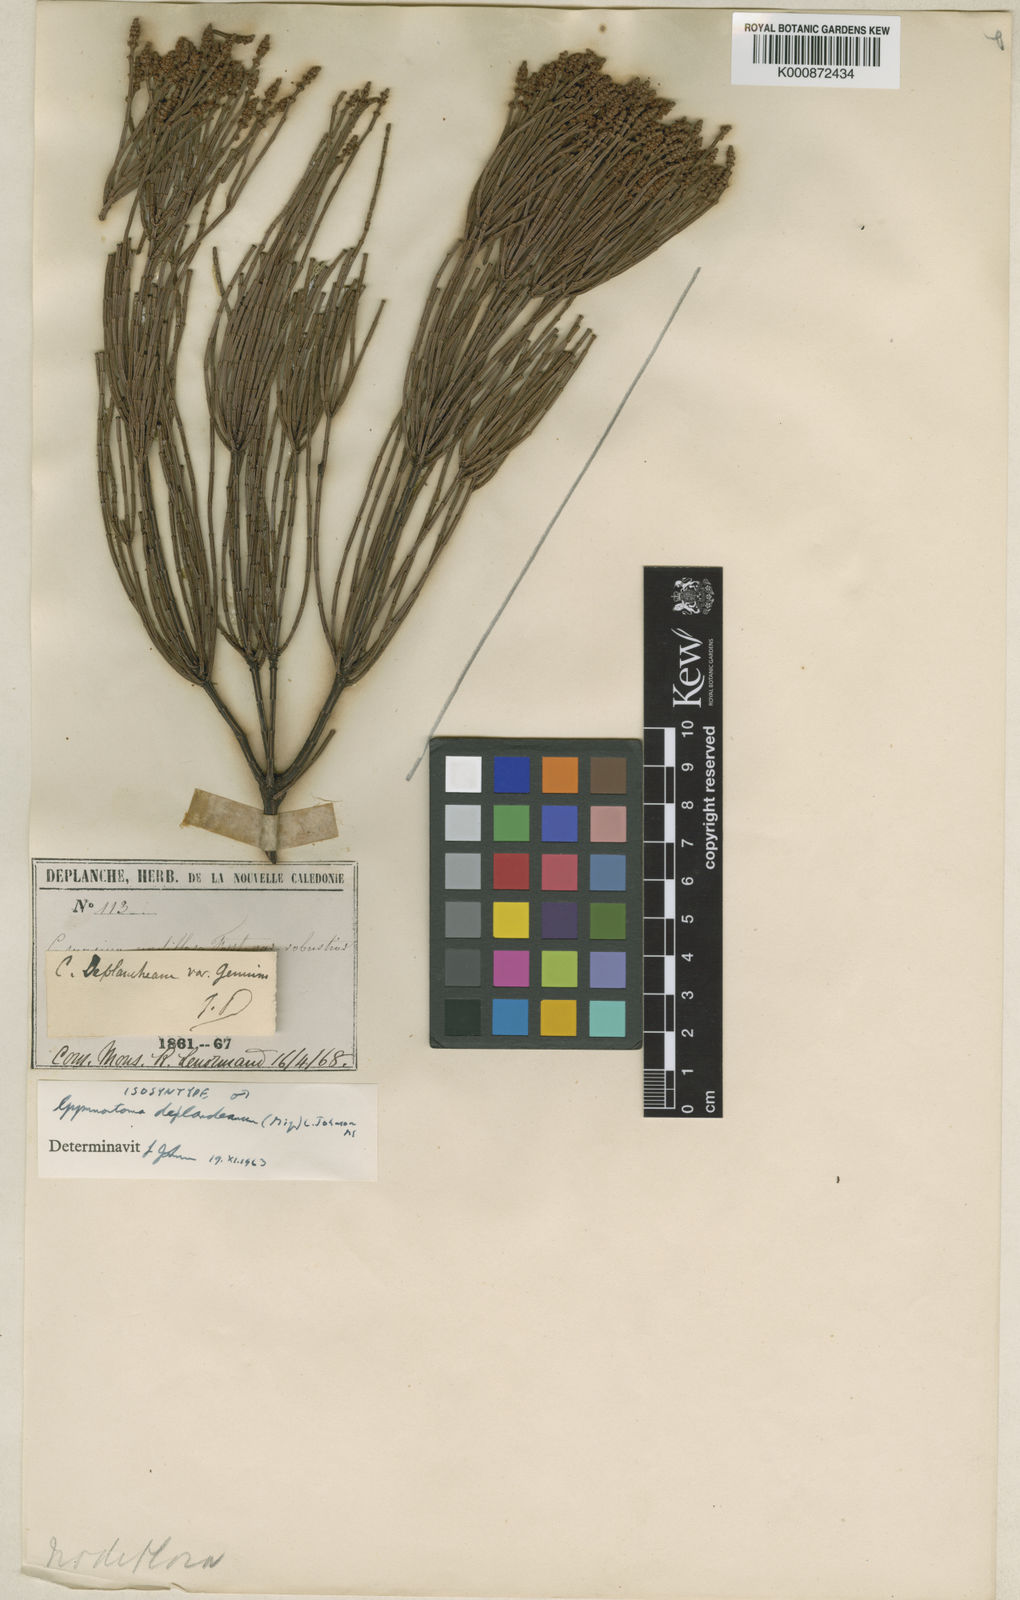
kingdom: Plantae
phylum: Tracheophyta
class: Magnoliopsida
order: Fagales
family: Casuarinaceae
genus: Gymnostoma
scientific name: Gymnostoma deplancheanum
